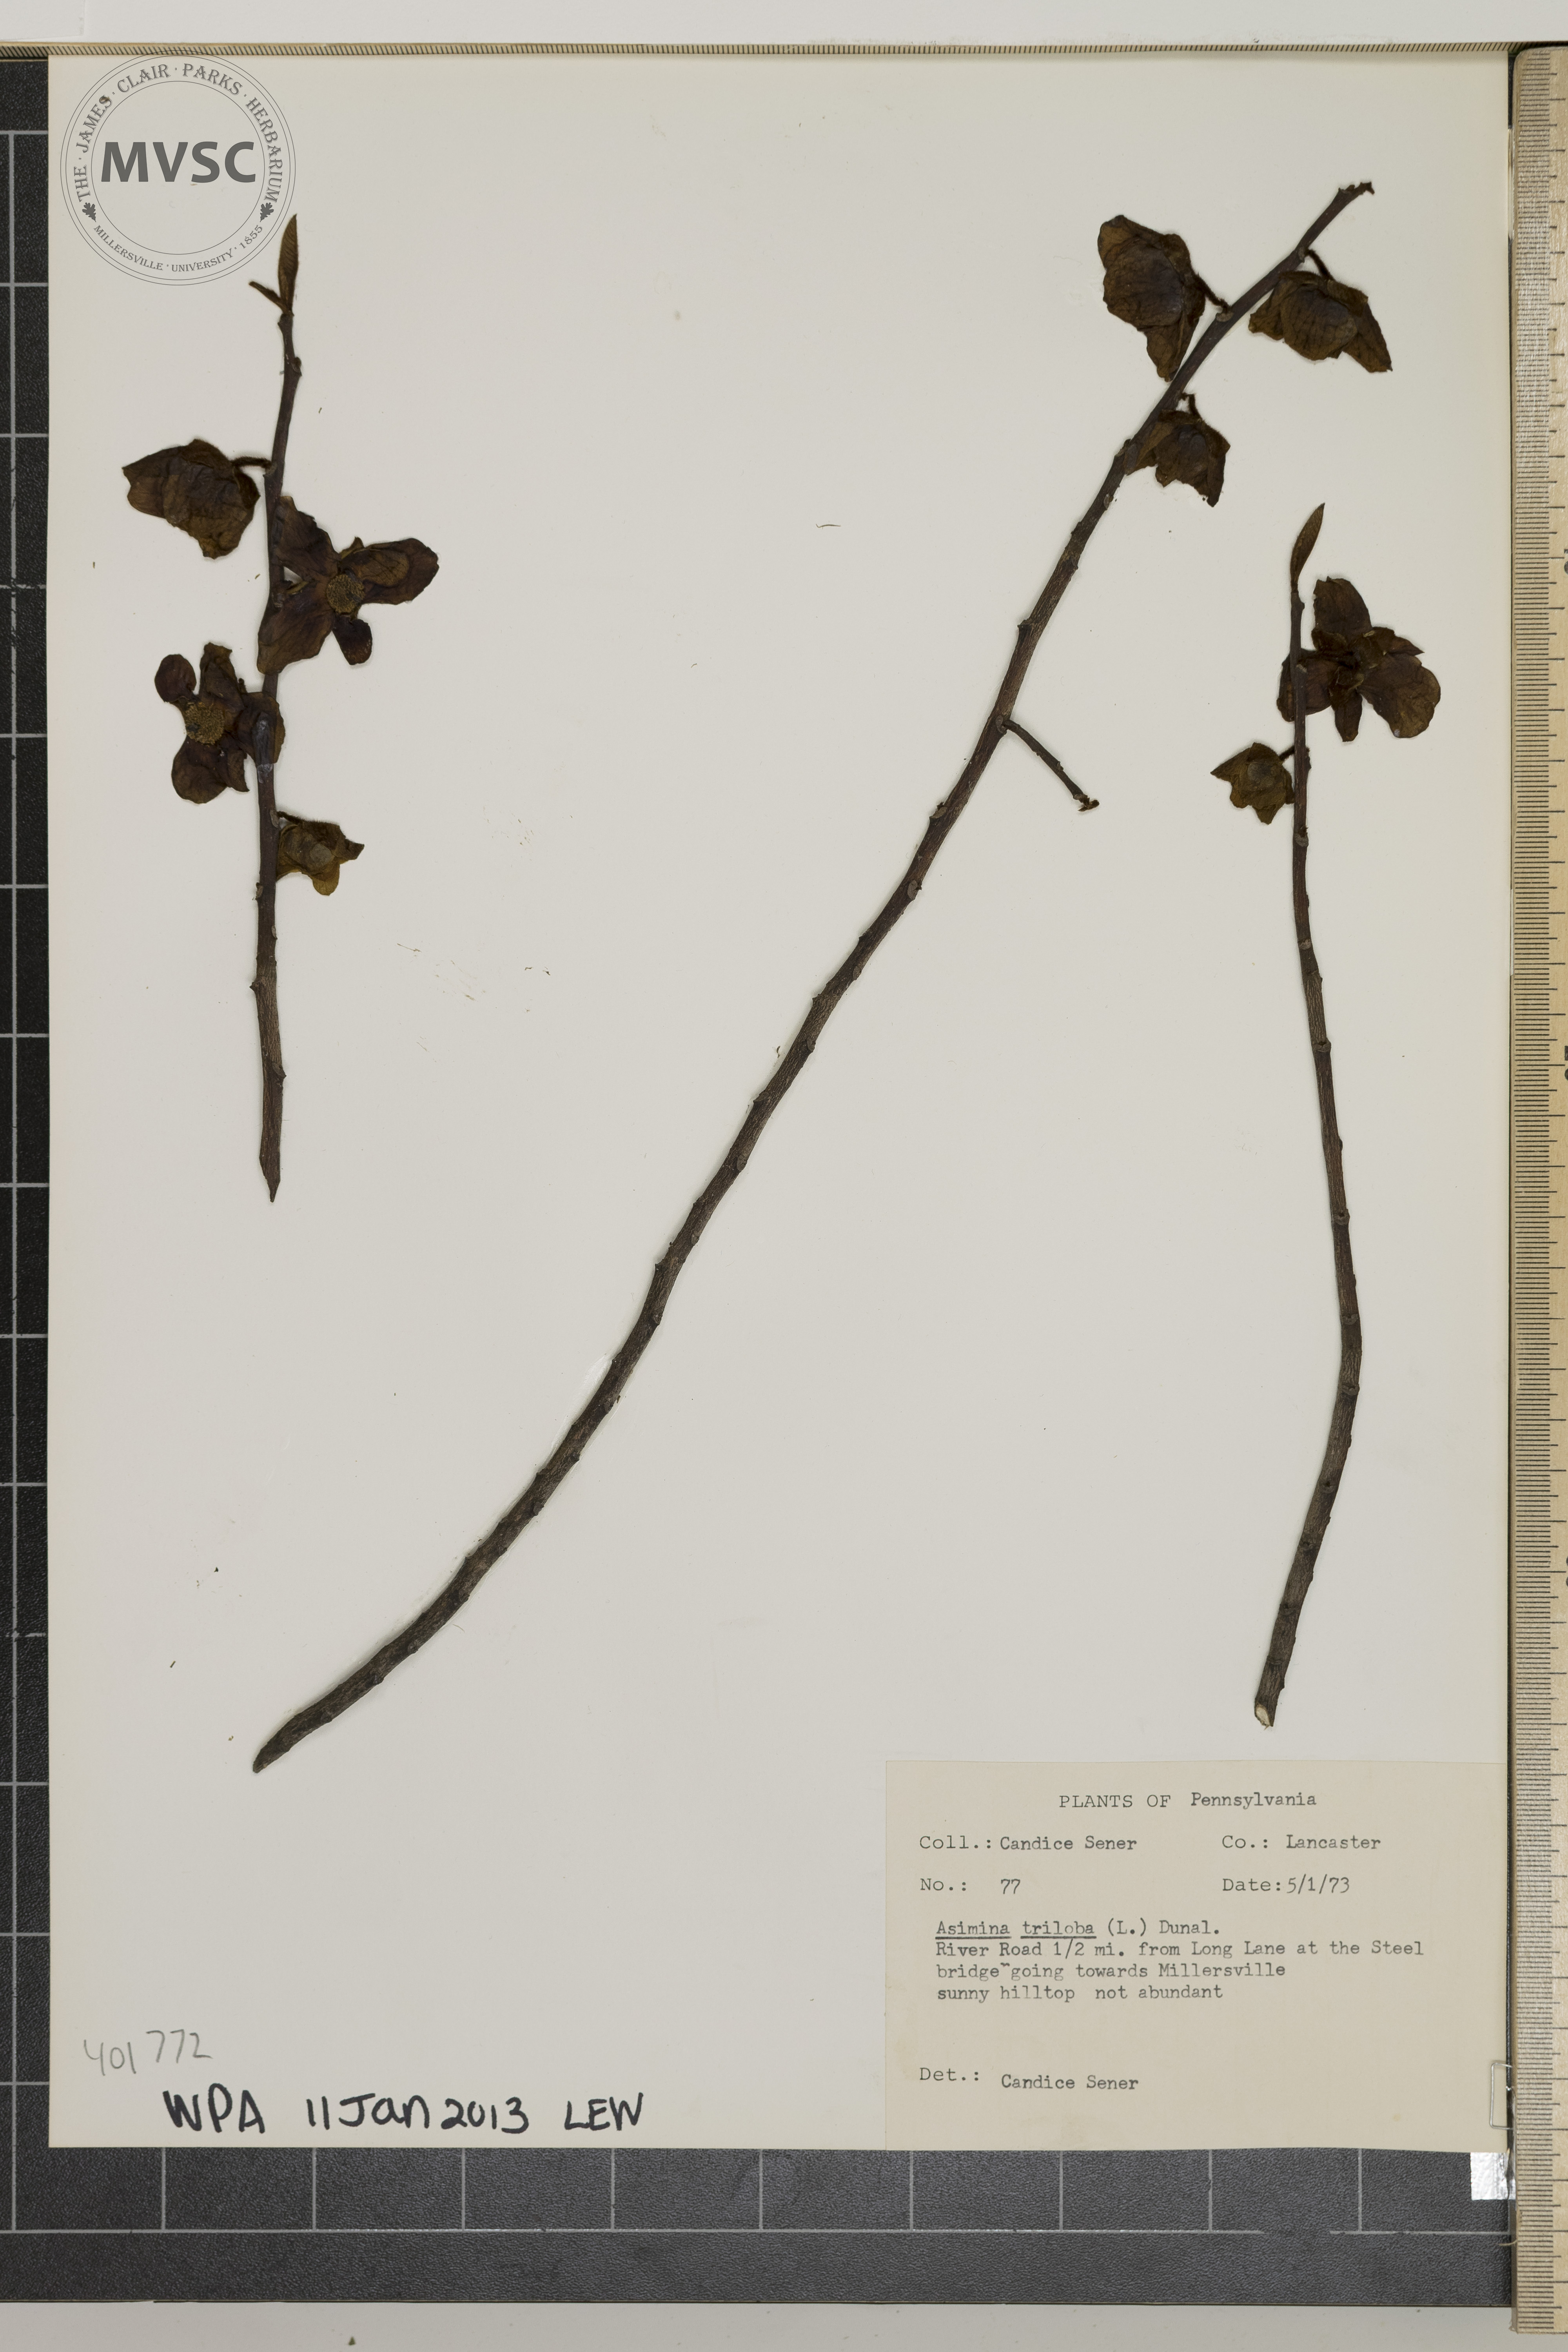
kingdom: Plantae
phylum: Tracheophyta
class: Magnoliopsida
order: Magnoliales
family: Annonaceae
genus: Asimina
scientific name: Asimina triloba
